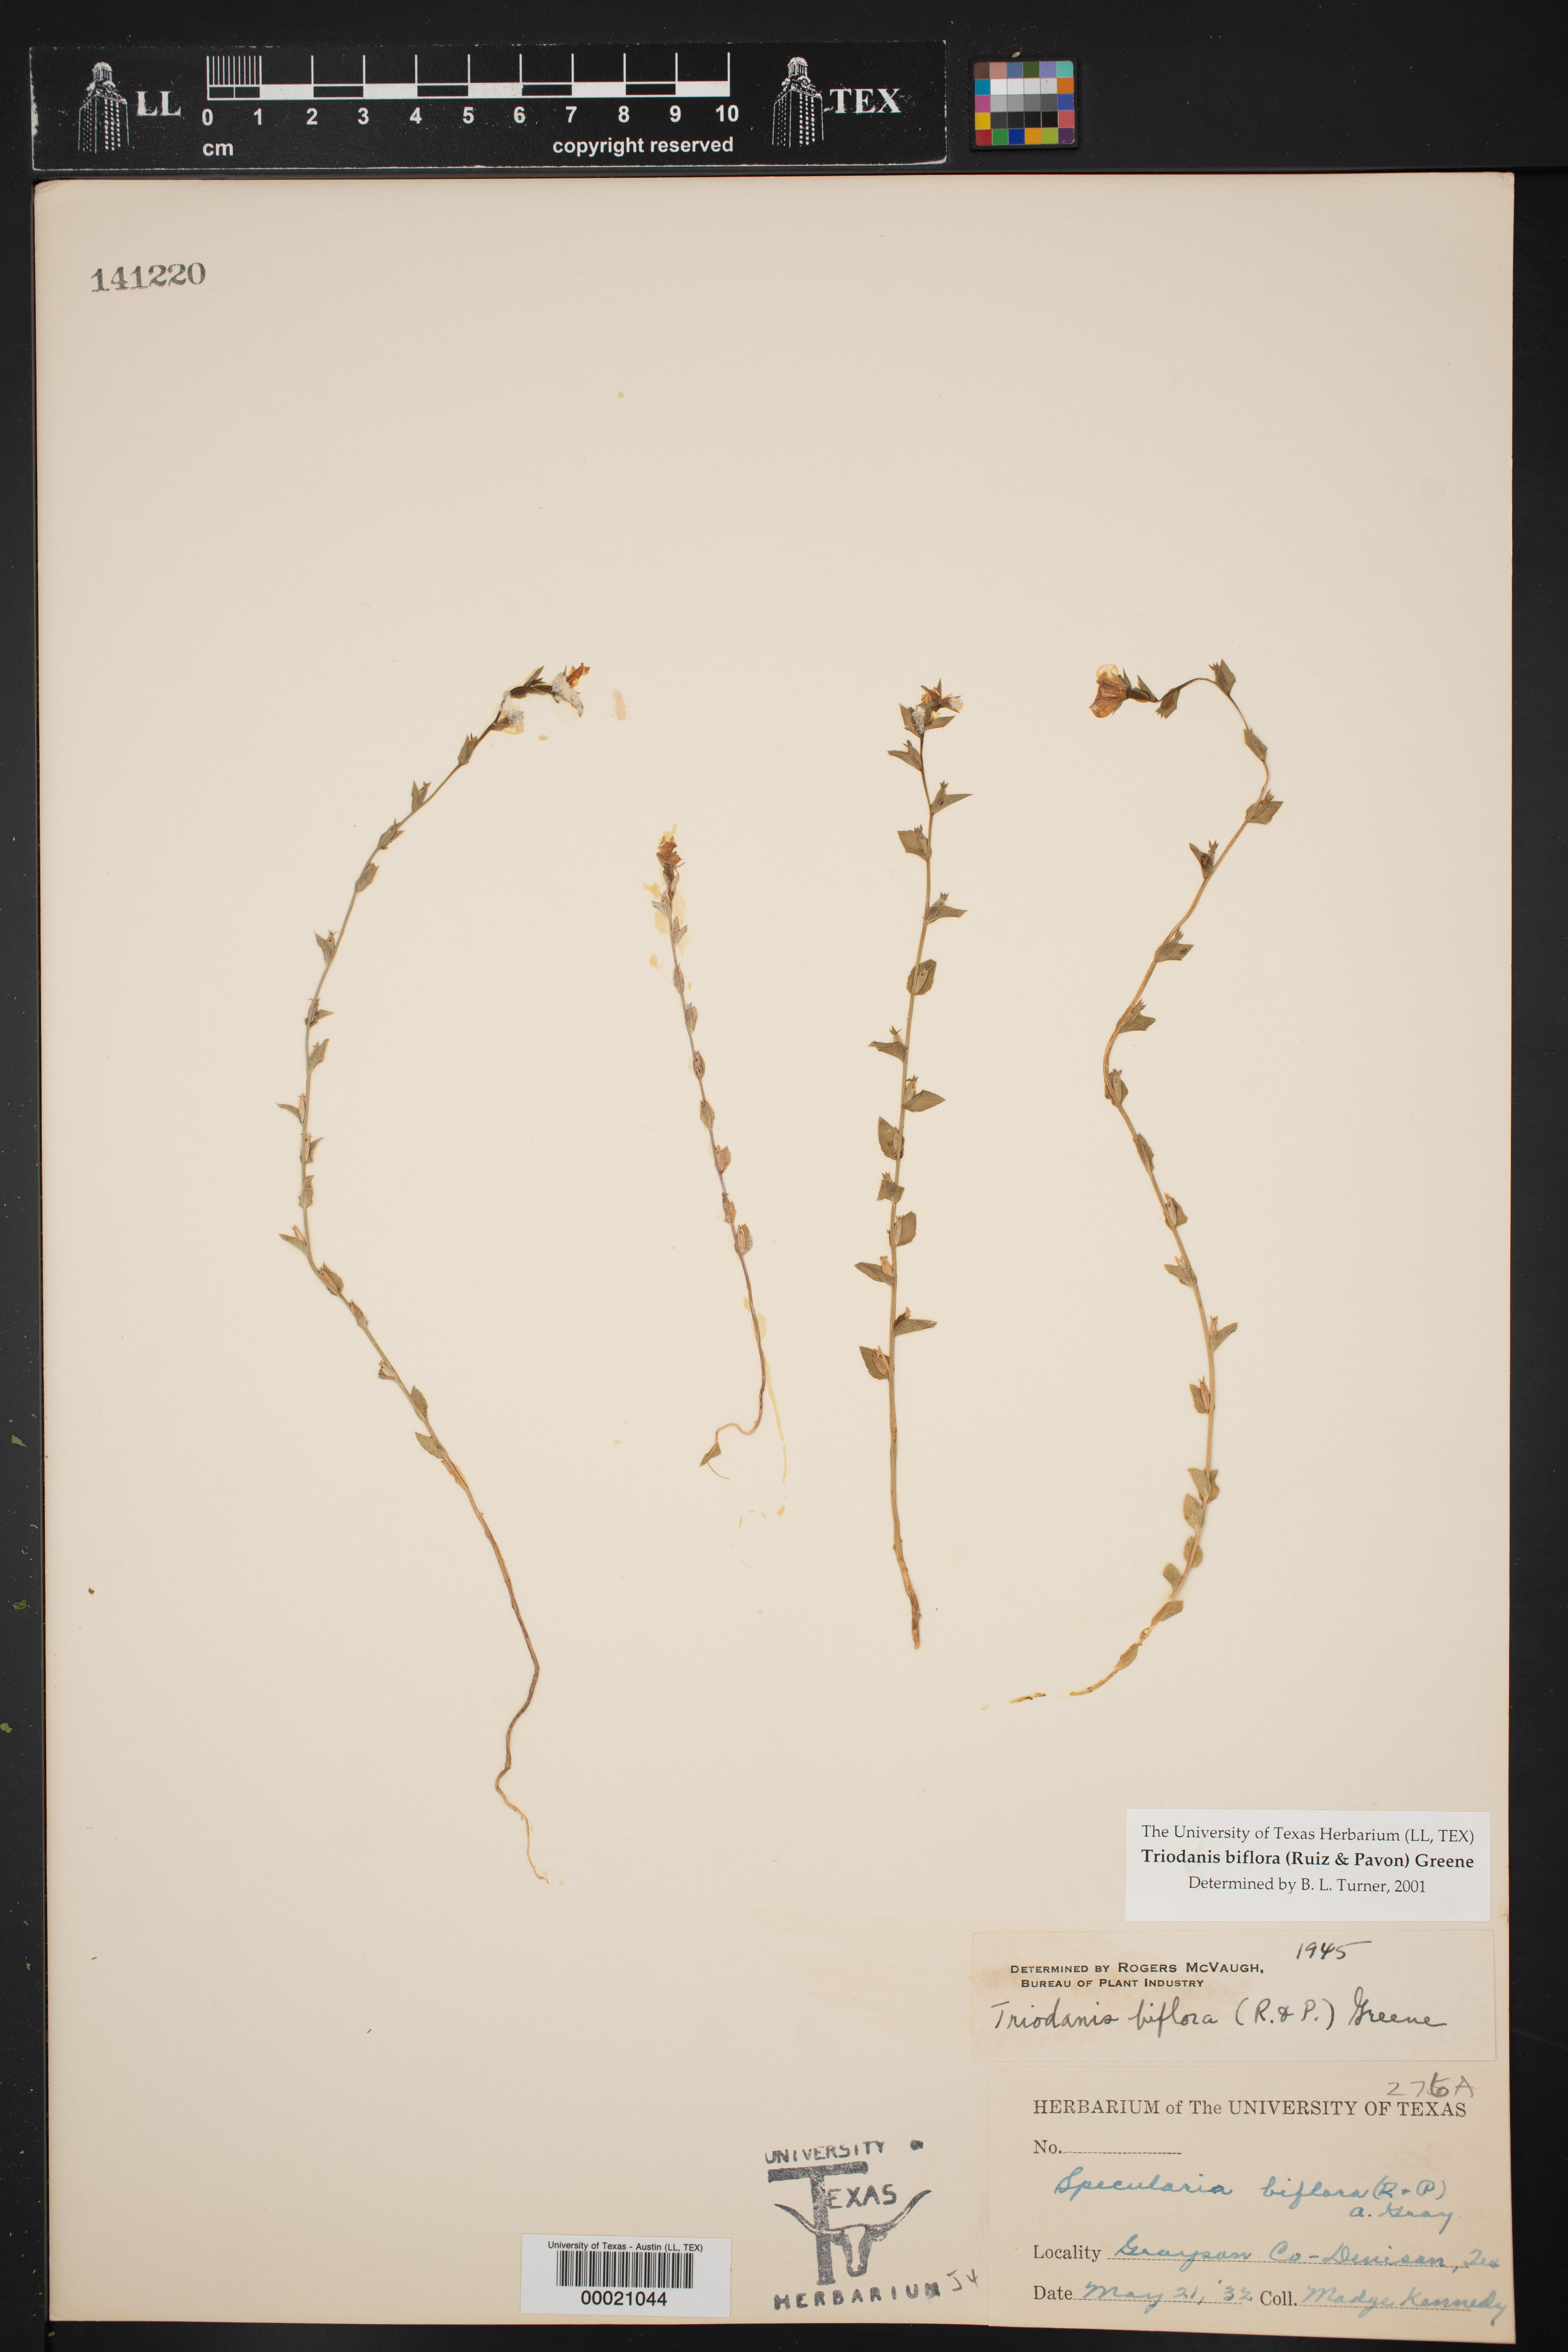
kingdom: Plantae
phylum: Tracheophyta
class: Magnoliopsida
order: Asterales
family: Campanulaceae
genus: Triodanis
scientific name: Triodanis biflora
